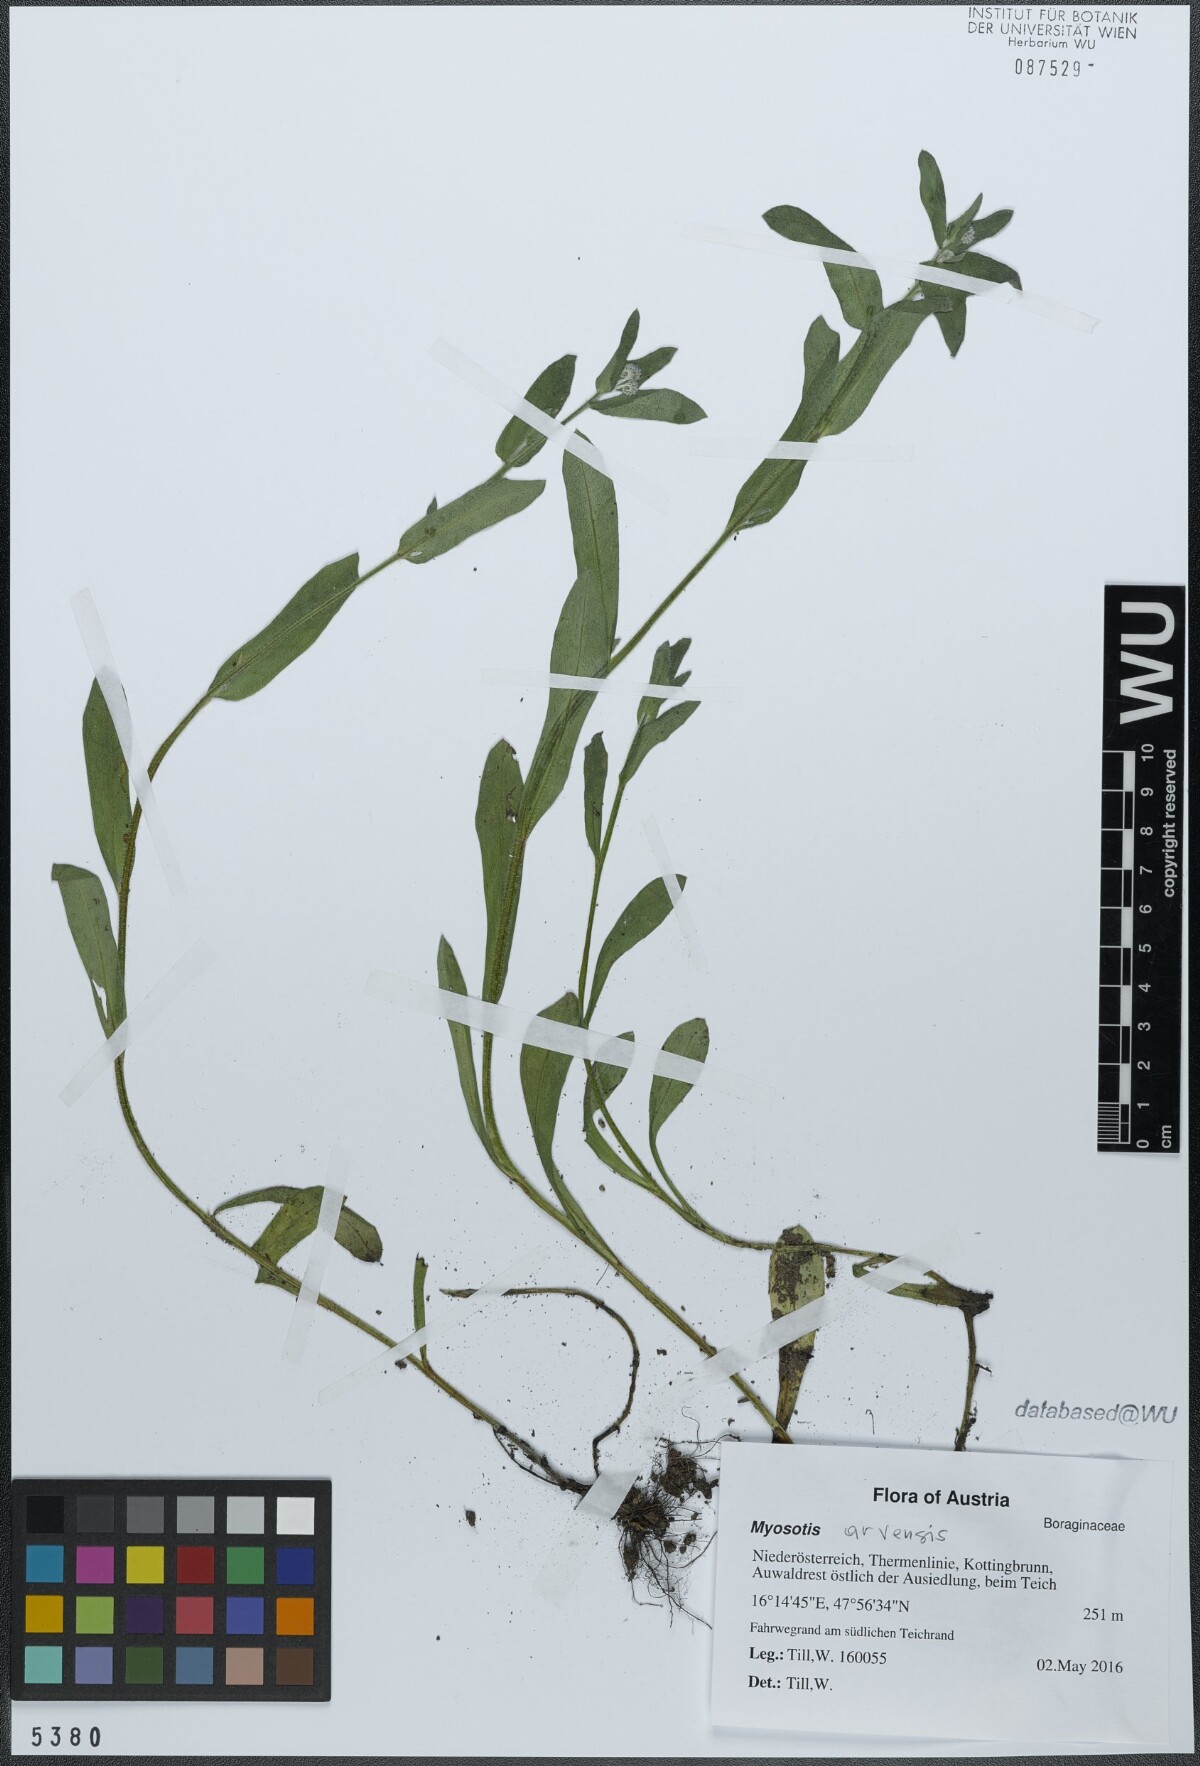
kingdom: Plantae
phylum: Tracheophyta
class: Magnoliopsida
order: Boraginales
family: Boraginaceae
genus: Myosotis
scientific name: Myosotis arvensis
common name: Field forget-me-not
